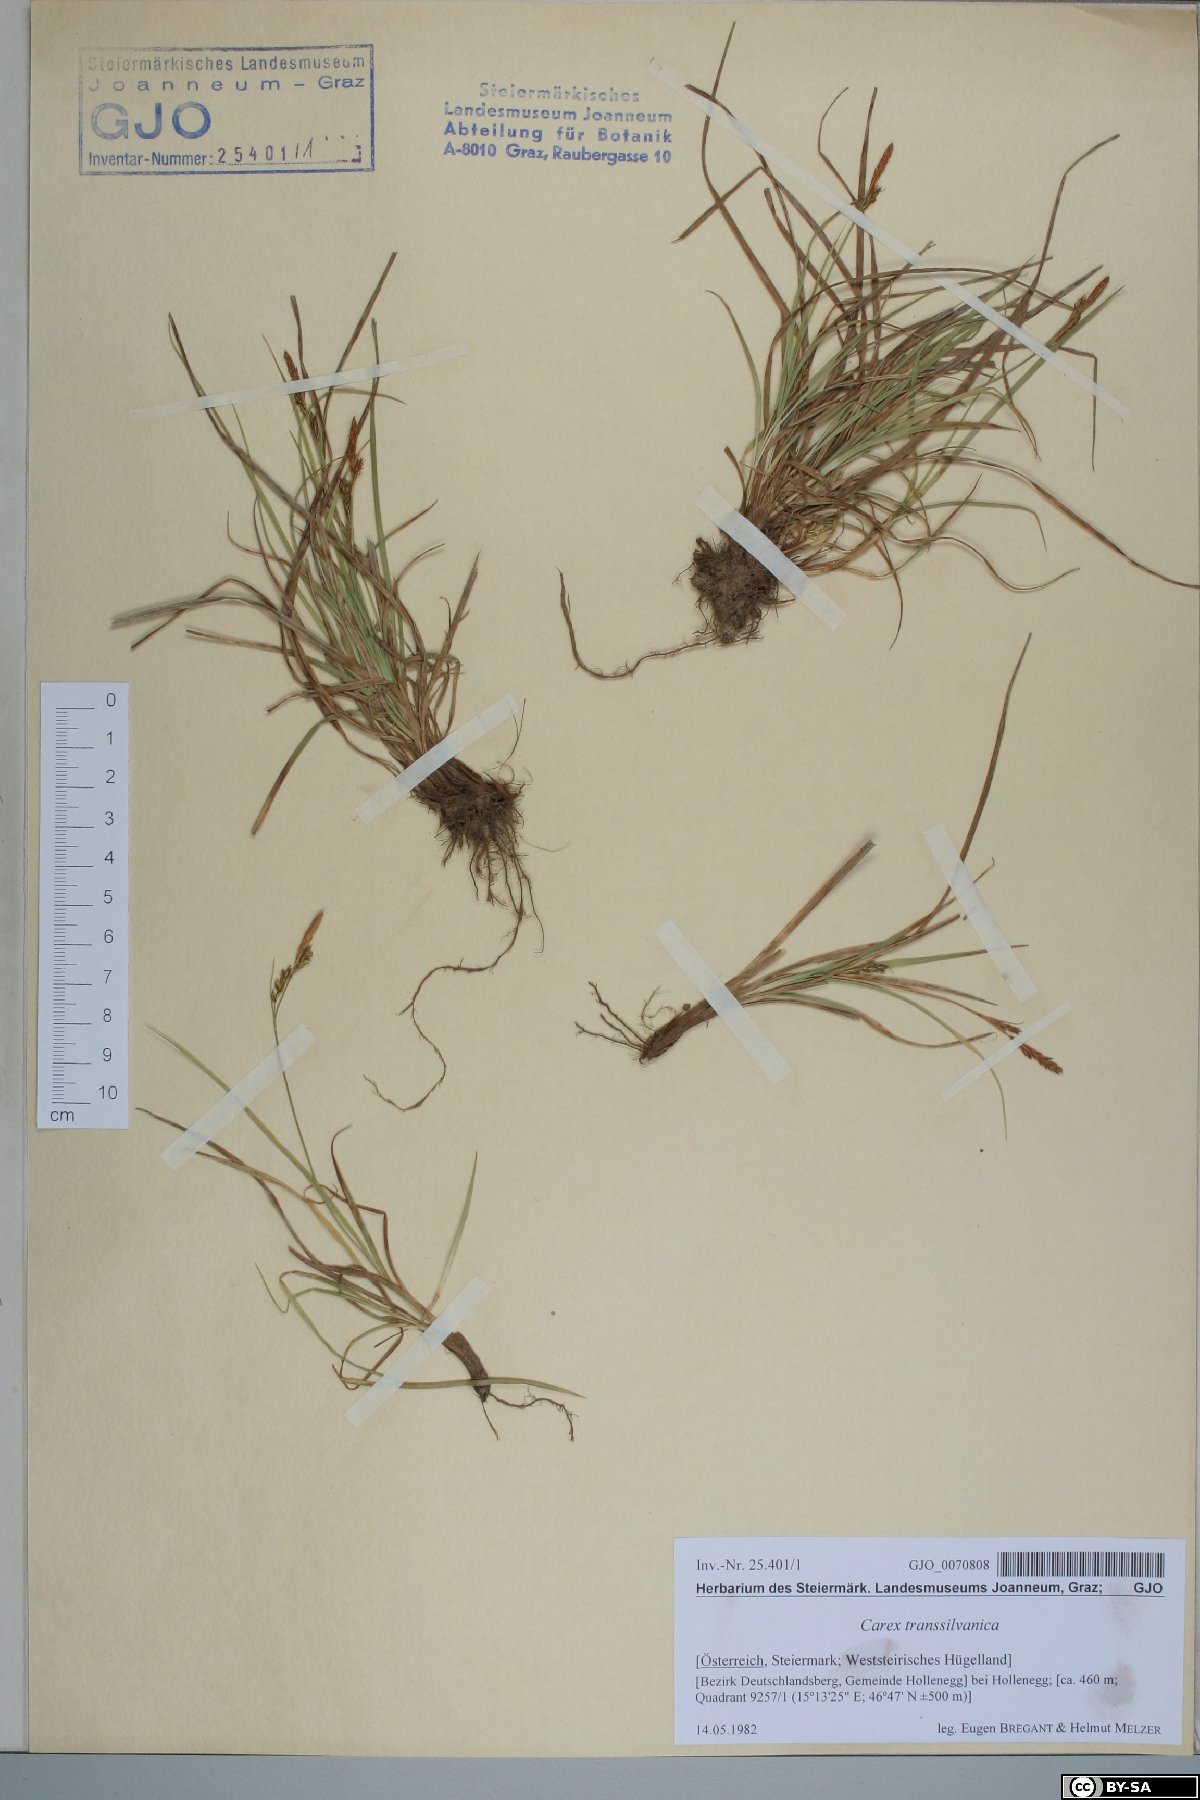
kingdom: Plantae
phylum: Tracheophyta
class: Liliopsida
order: Poales
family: Cyperaceae
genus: Carex
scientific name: Carex depressa
